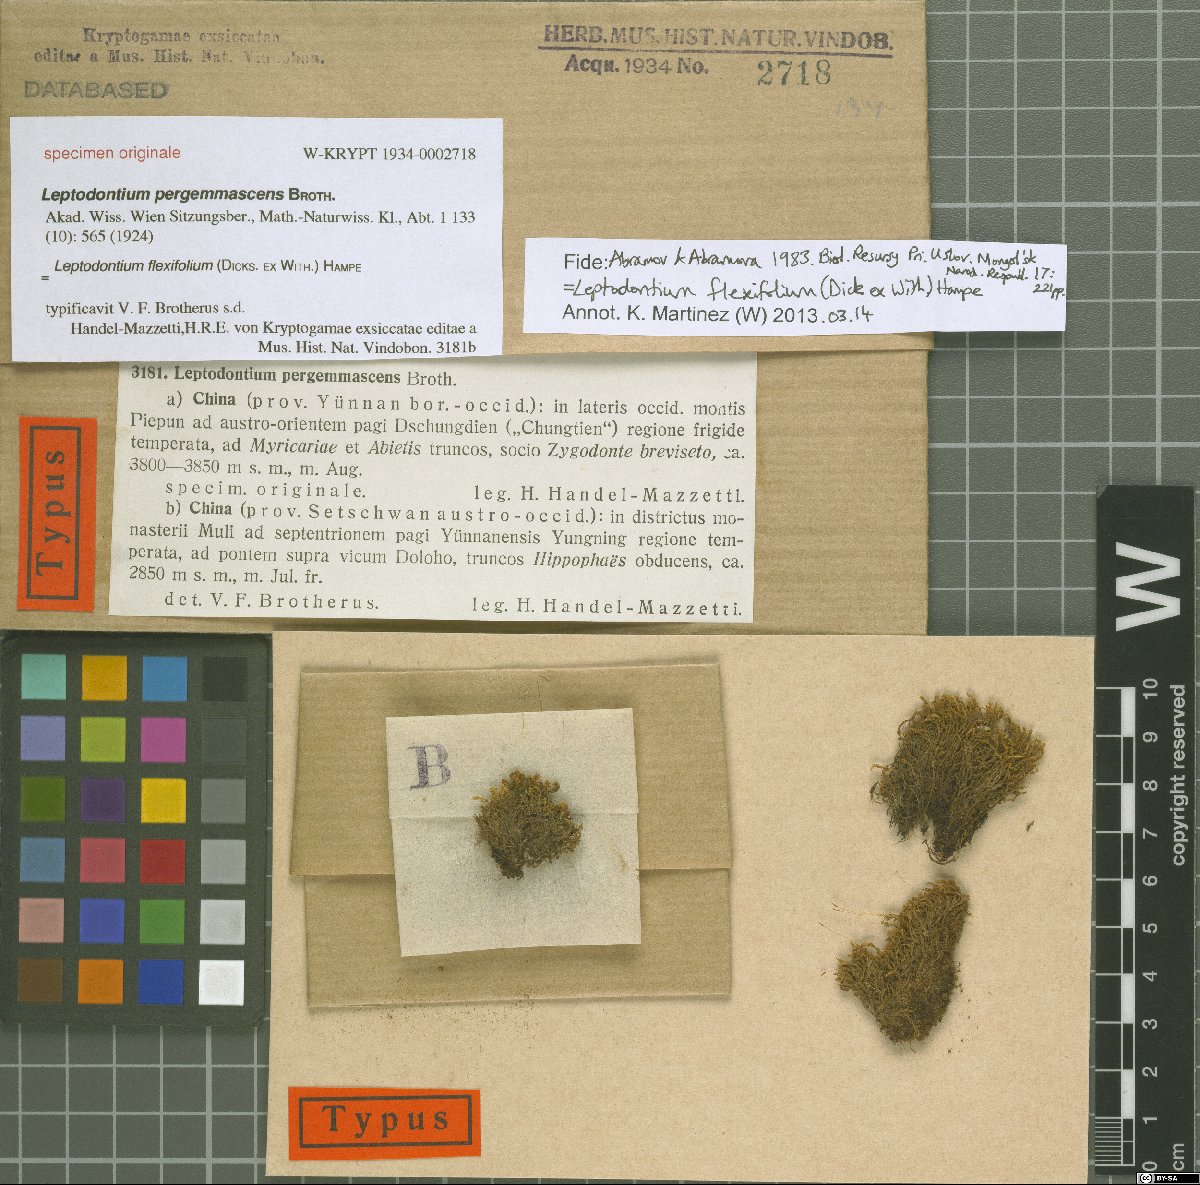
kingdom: Plantae
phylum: Bryophyta
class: Bryopsida
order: Pottiales
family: Pottiaceae
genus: Leptodontium
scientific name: Leptodontium flexifolium
